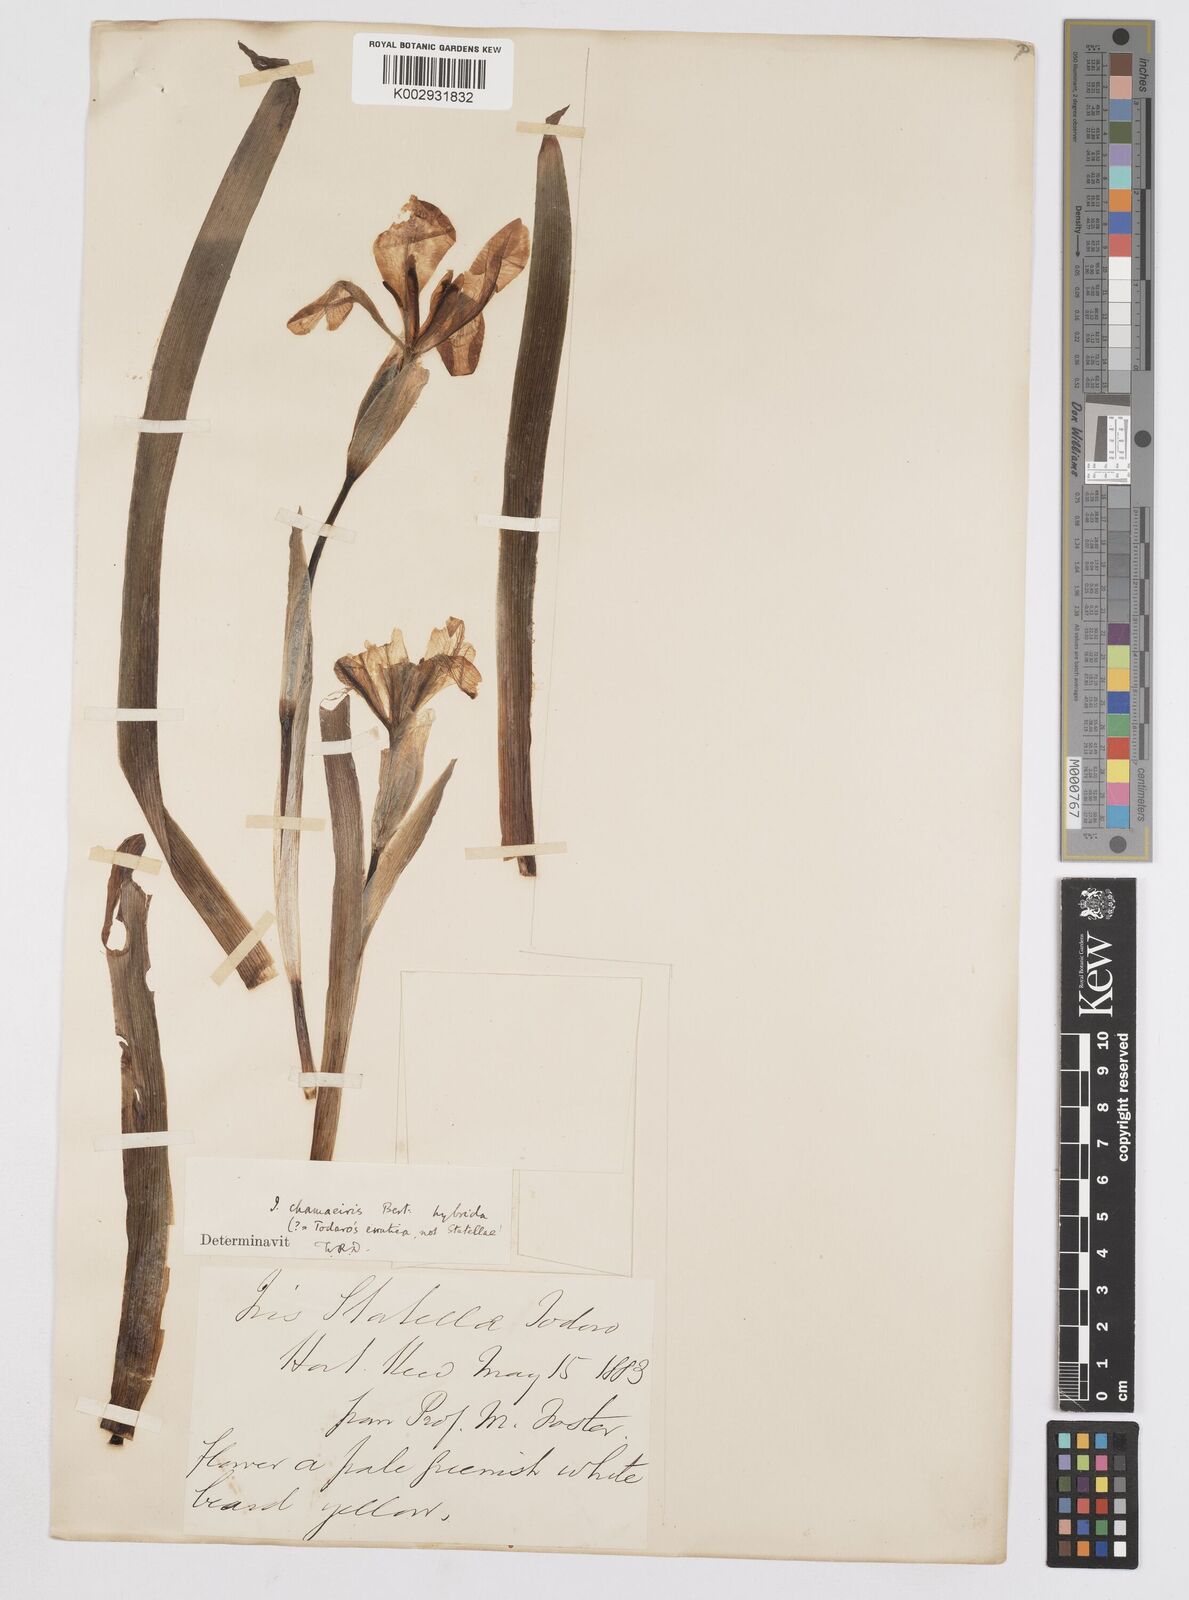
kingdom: Plantae
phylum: Tracheophyta
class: Liliopsida
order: Asparagales
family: Iridaceae
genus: Iris
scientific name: Iris lutescens
